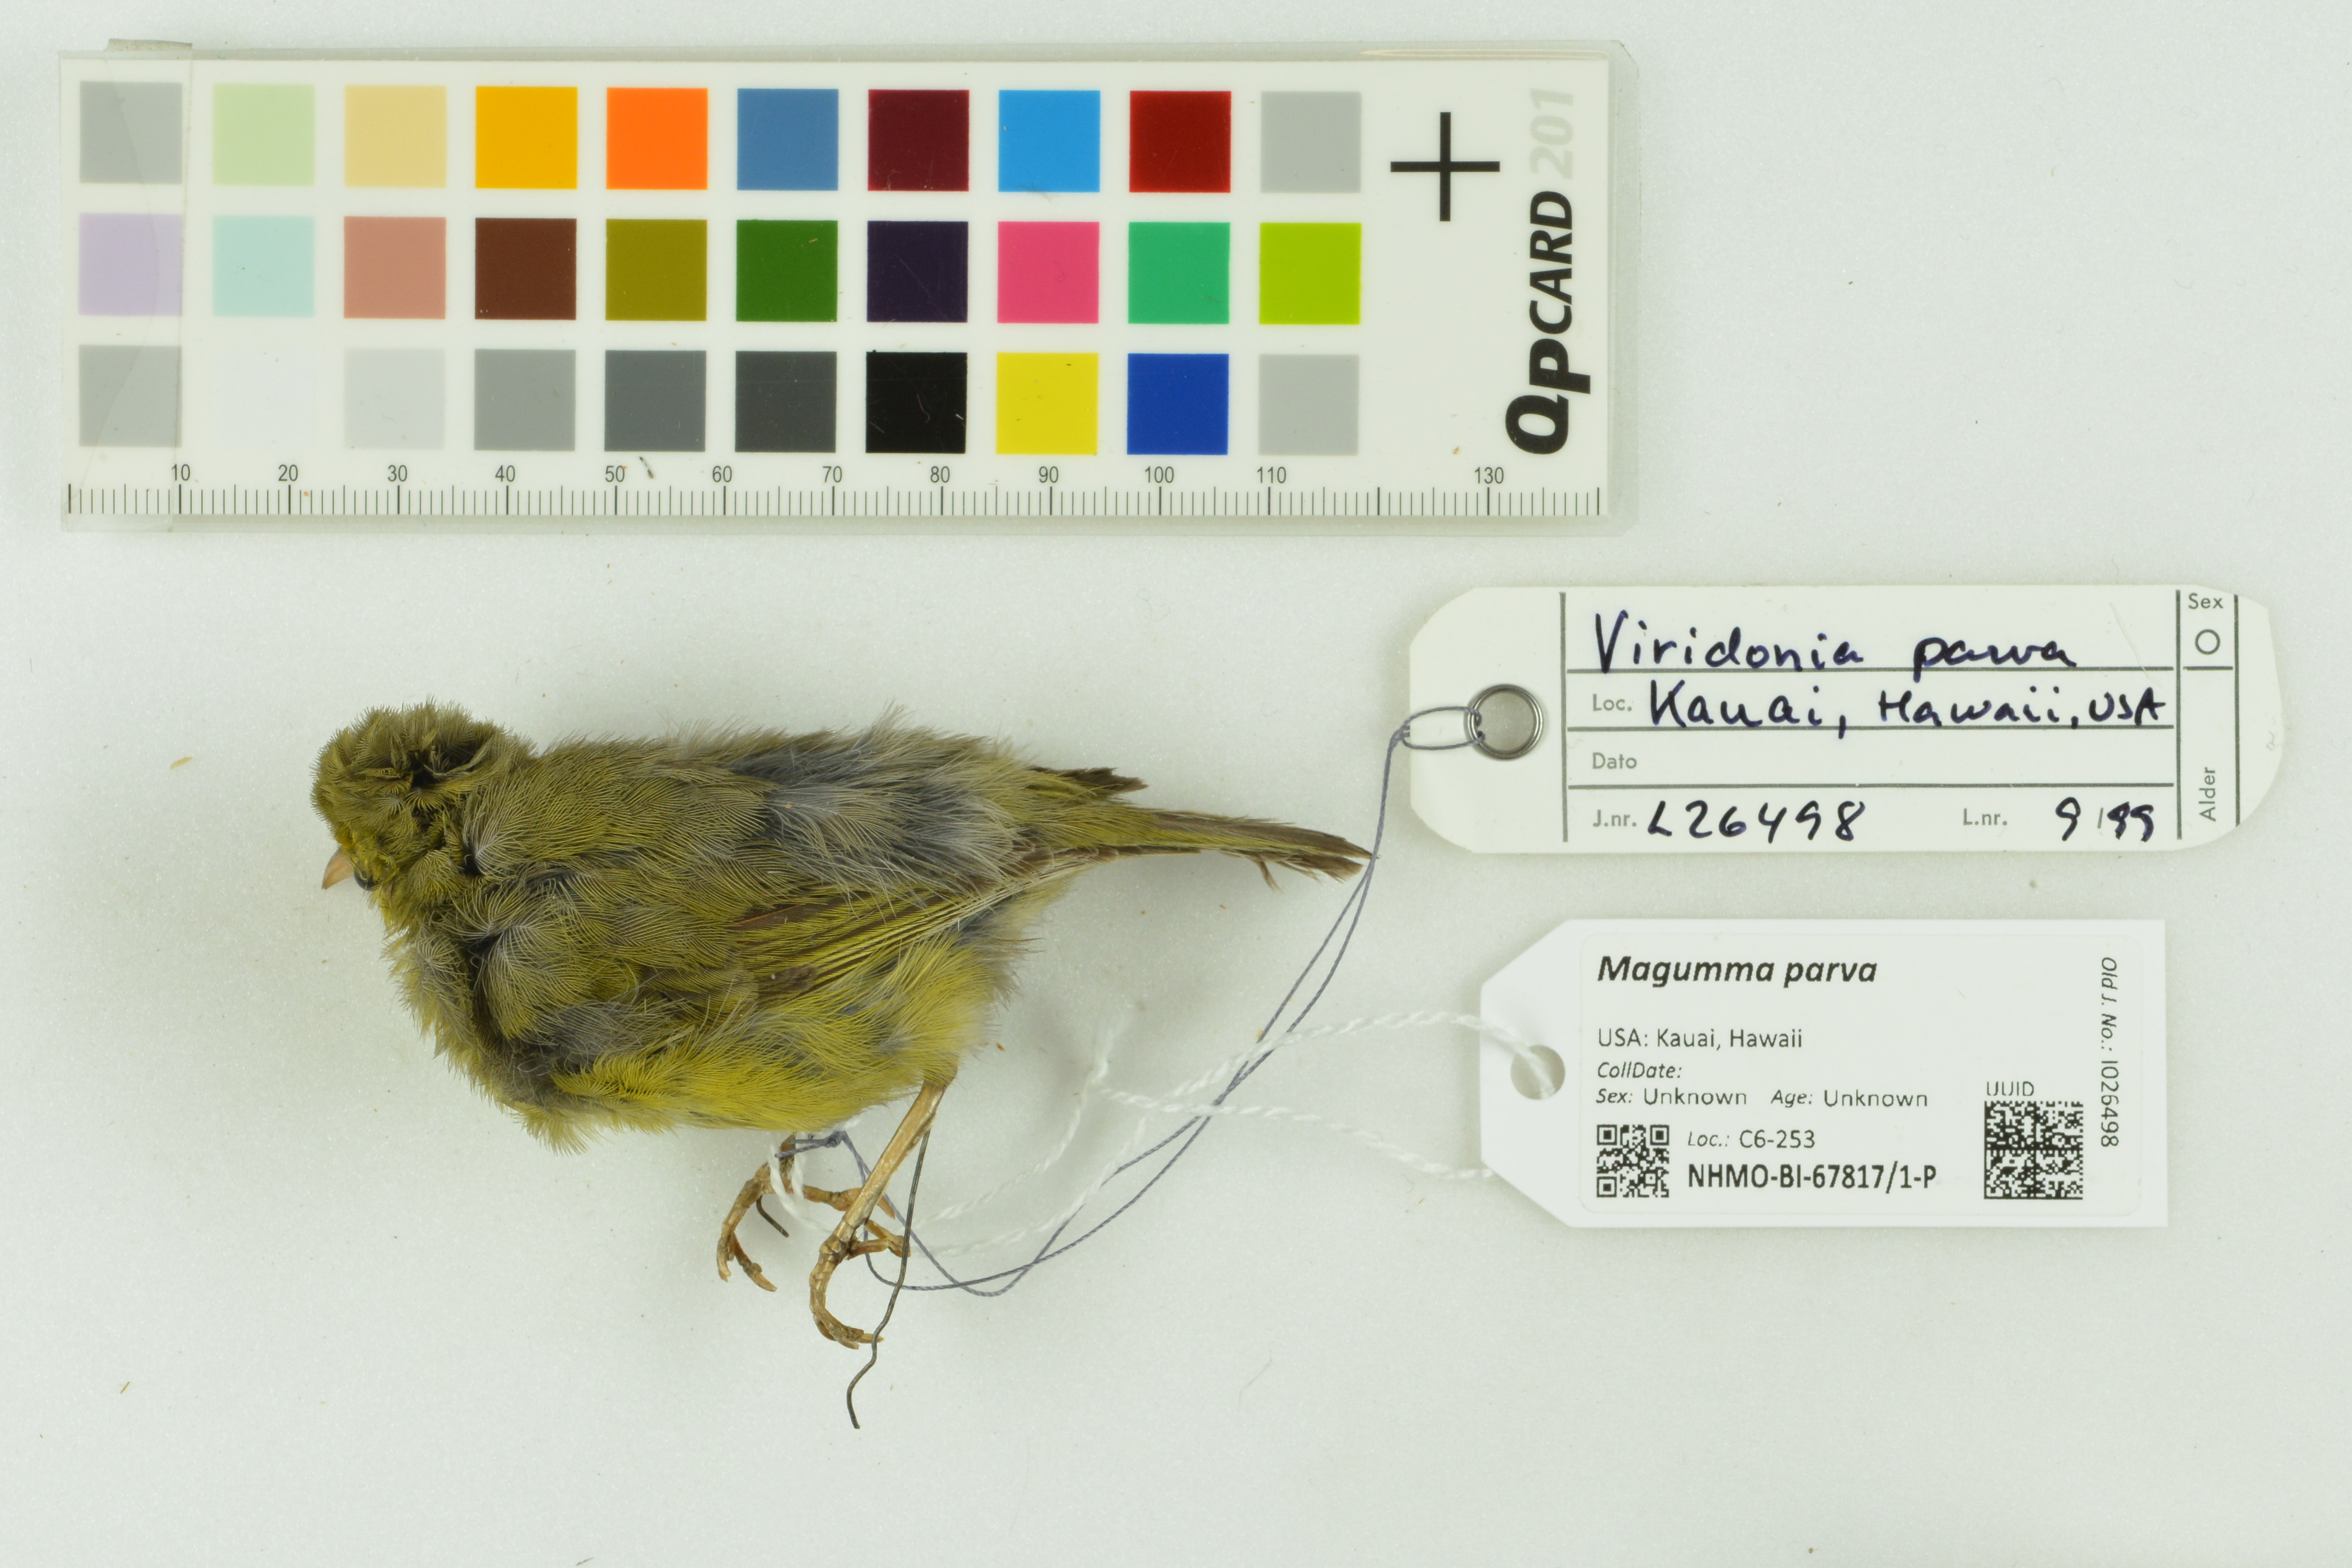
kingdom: Animalia
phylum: Chordata
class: Aves
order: Passeriformes
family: Fringillidae
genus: Magumma
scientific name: Magumma parva
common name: Anianiau
